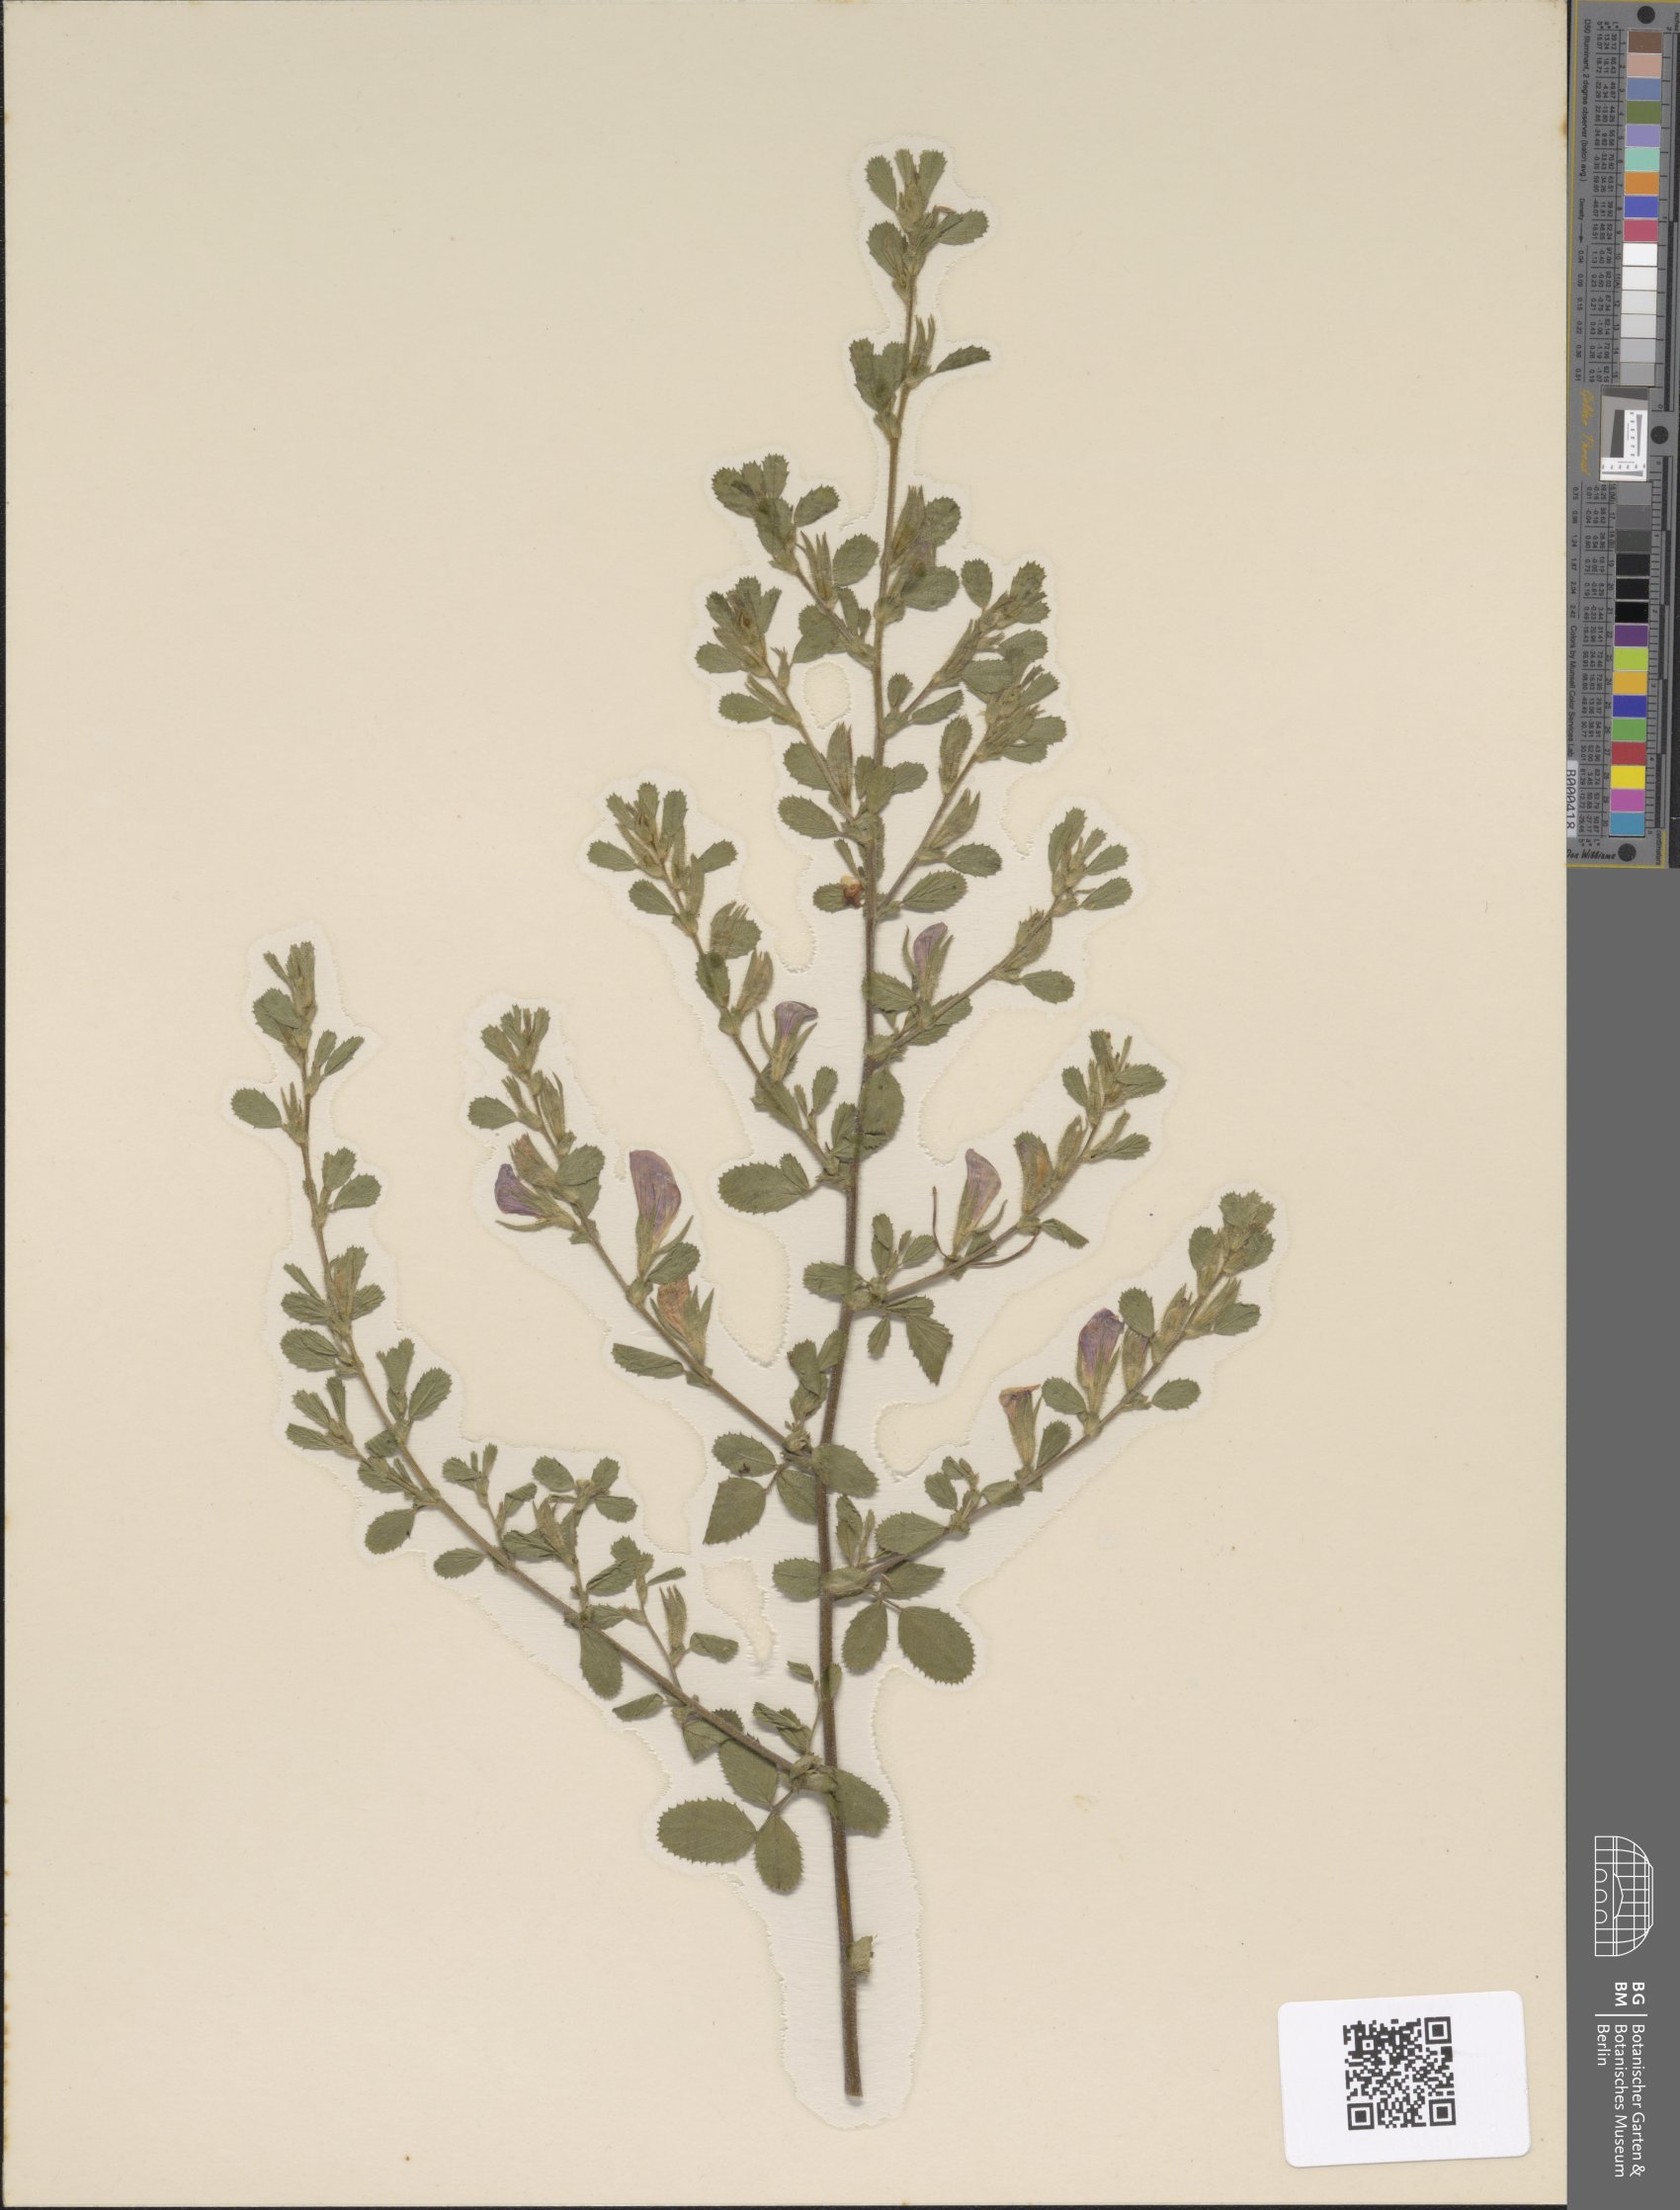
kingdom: Plantae
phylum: Tracheophyta
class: Magnoliopsida
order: Fabales
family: Fabaceae
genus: Ononis
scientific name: Ononis spinosa
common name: Spiny restharrow
